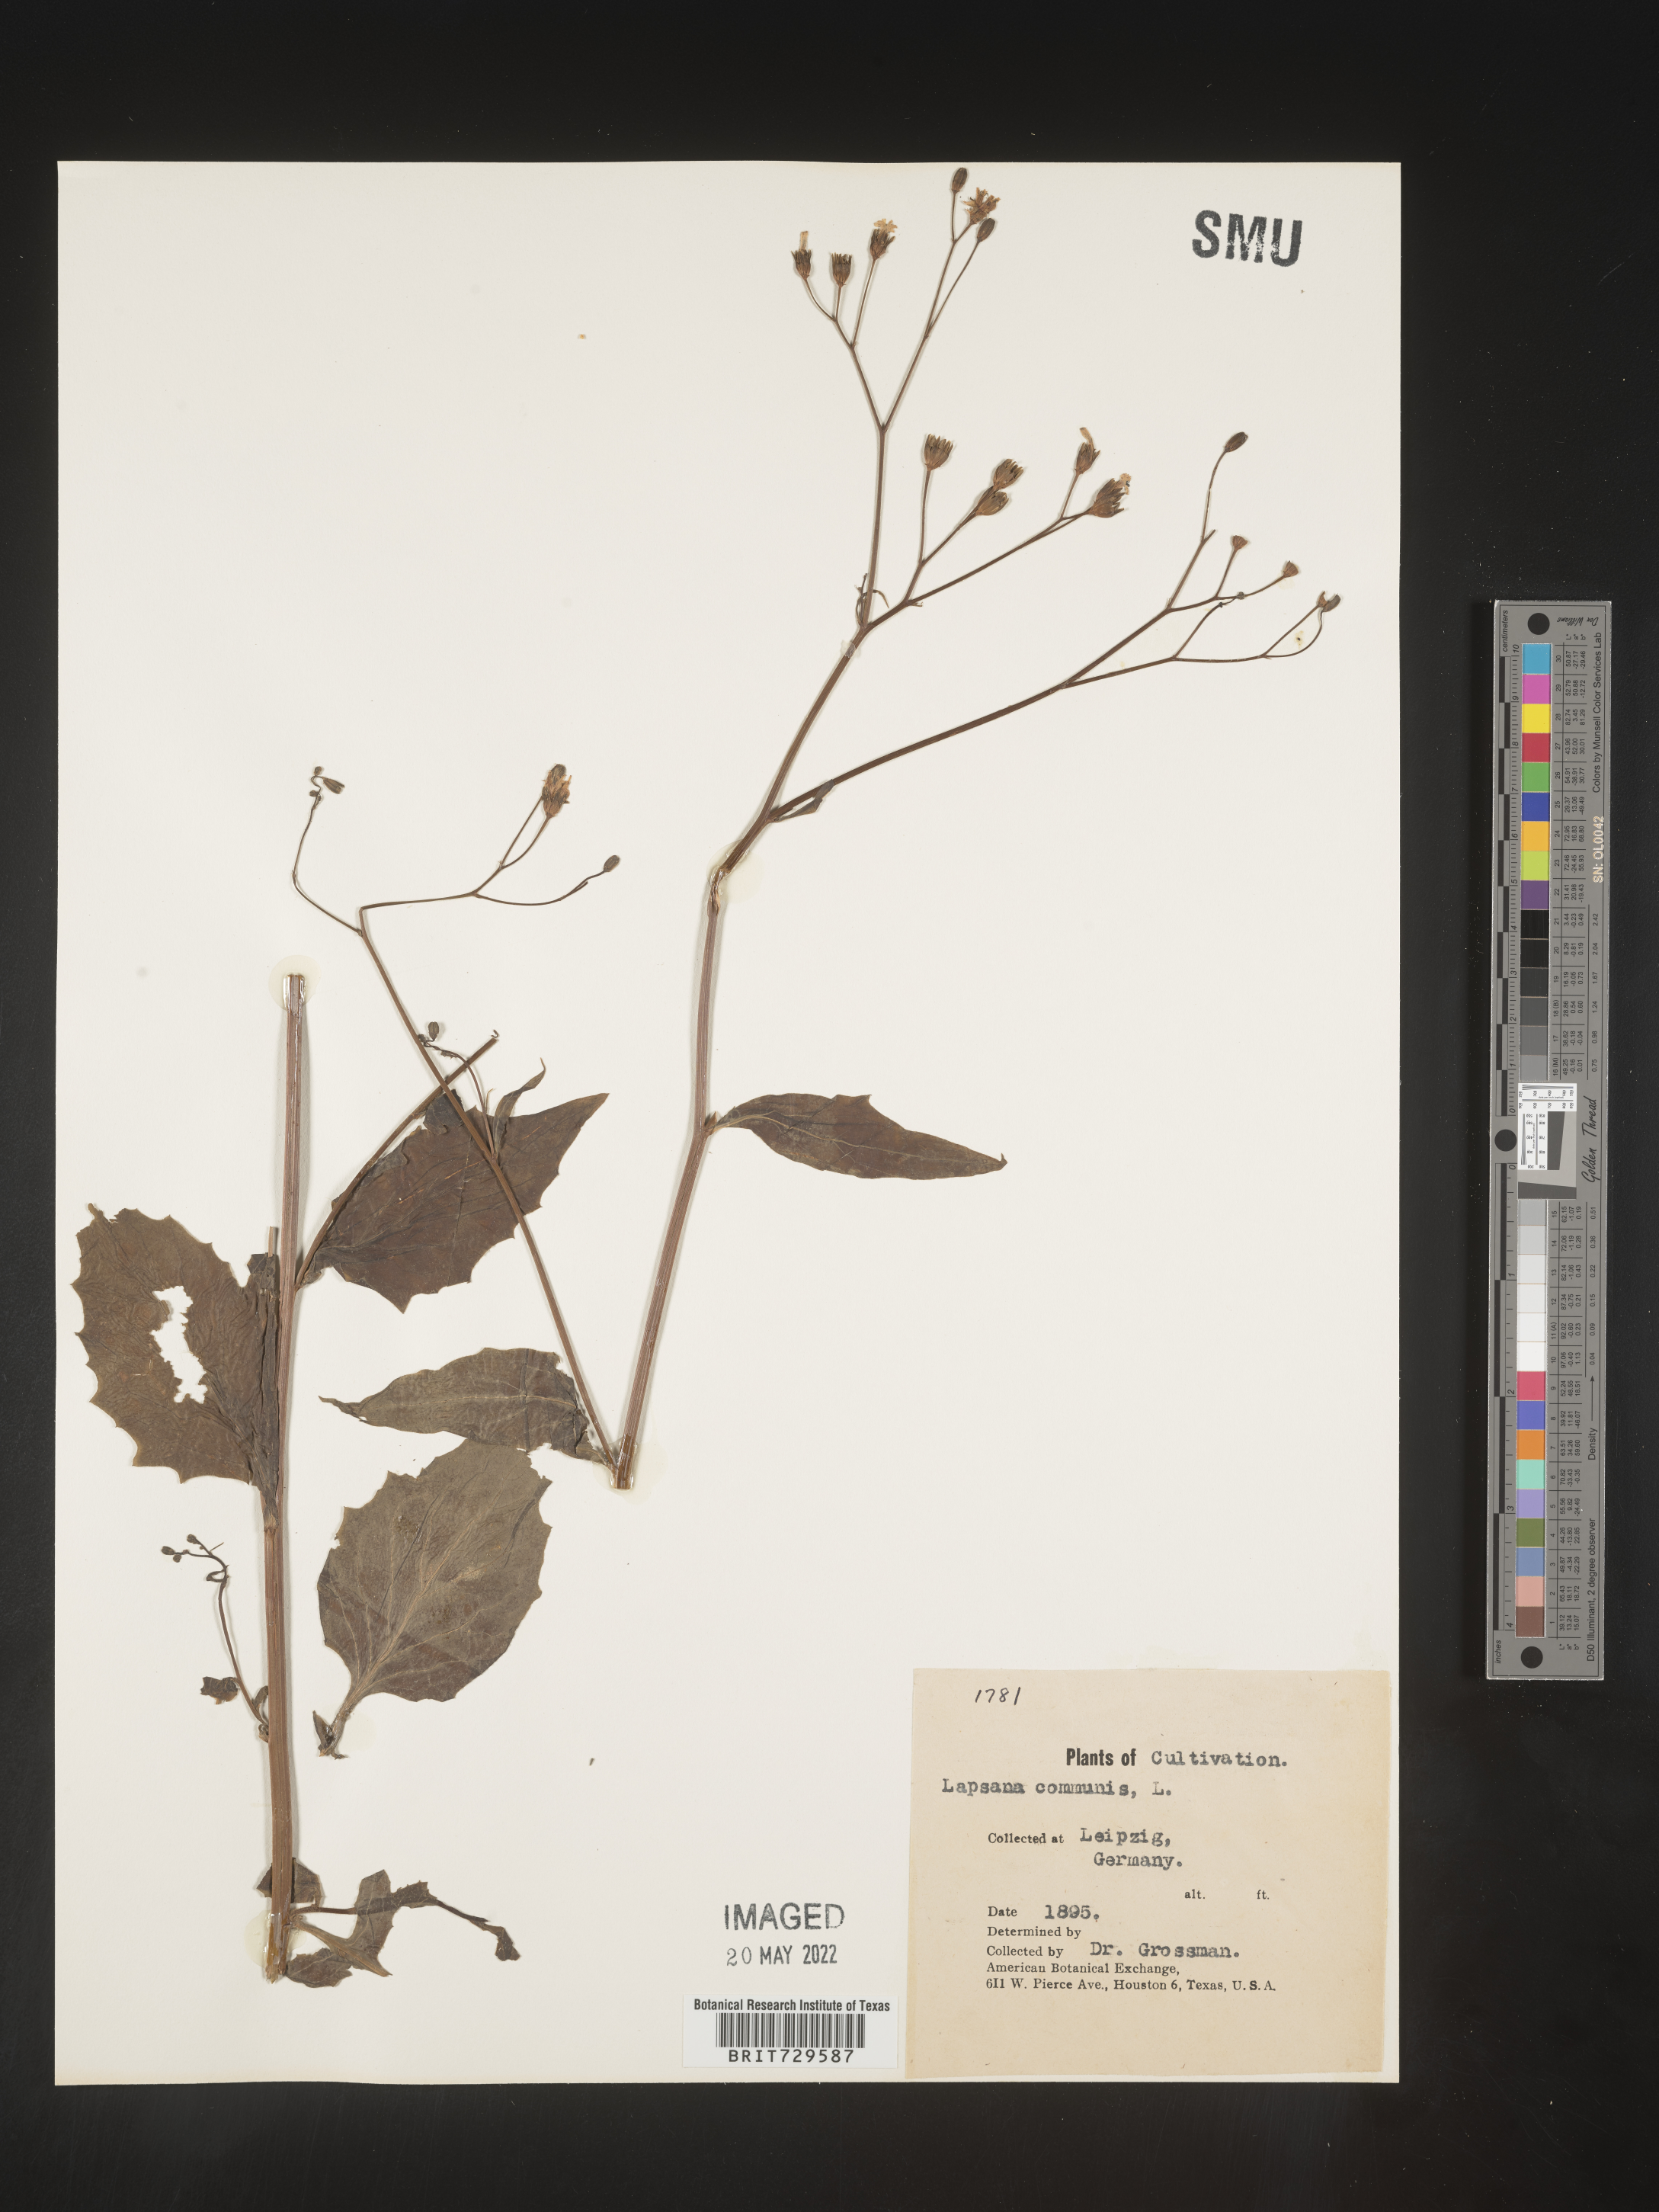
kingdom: Plantae
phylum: Tracheophyta
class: Magnoliopsida
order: Asterales
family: Asteraceae
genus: Lapsana
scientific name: Lapsana
